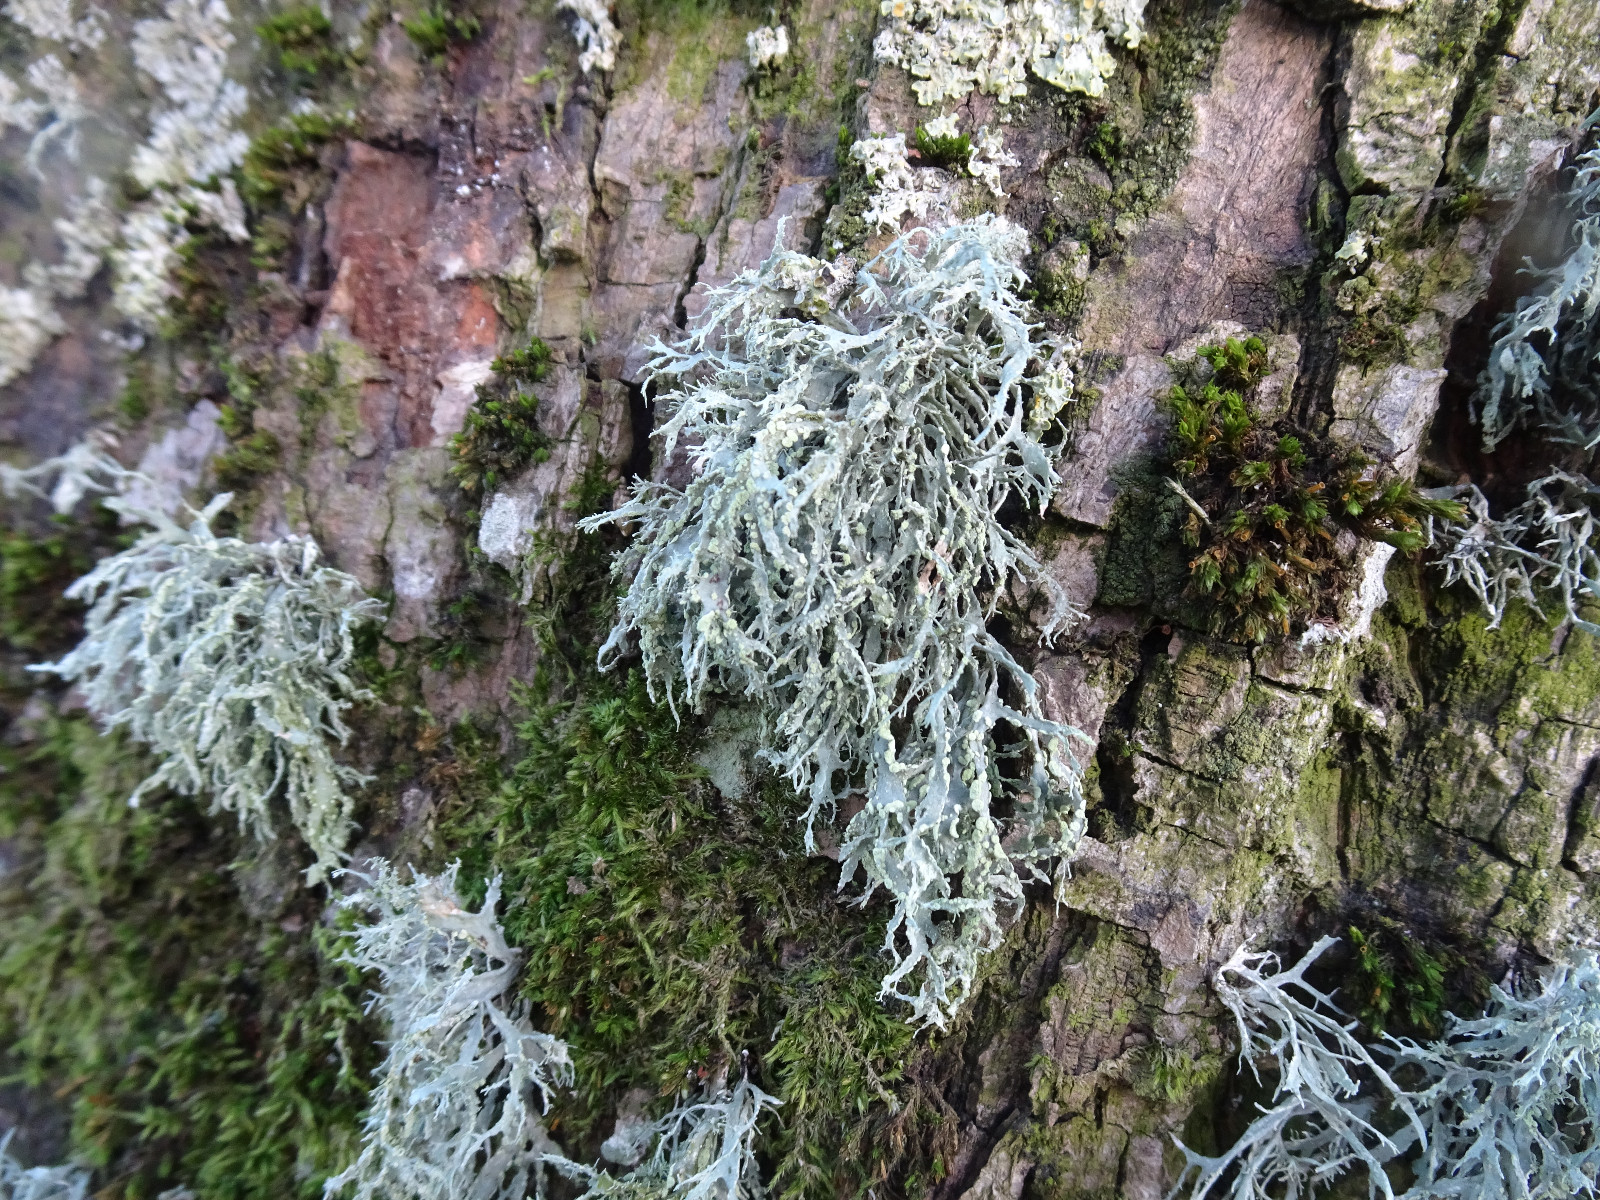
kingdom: Fungi
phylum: Ascomycota
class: Lecanoromycetes
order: Lecanorales
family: Ramalinaceae
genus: Ramalina
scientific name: Ramalina farinacea
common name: melet grenlav
